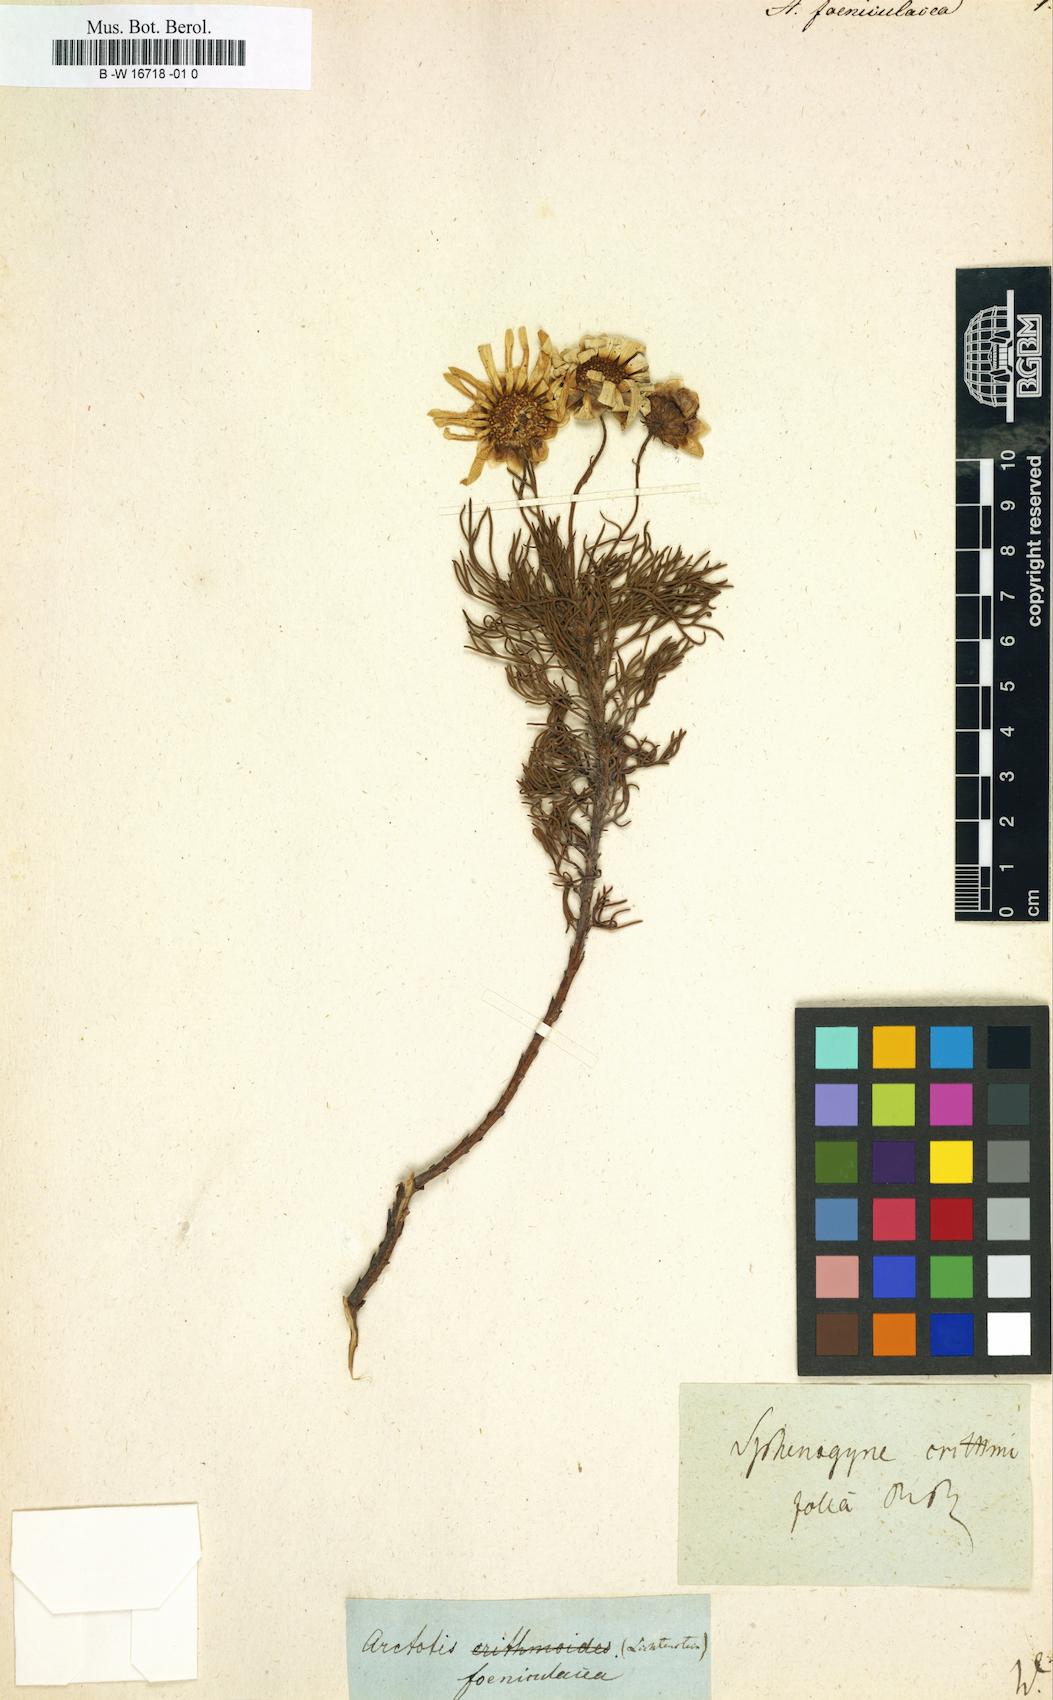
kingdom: Plantae
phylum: Tracheophyta
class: Magnoliopsida
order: Asterales
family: Asteraceae
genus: Ursinia
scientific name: Ursinia anthemoides
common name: Ursinia
